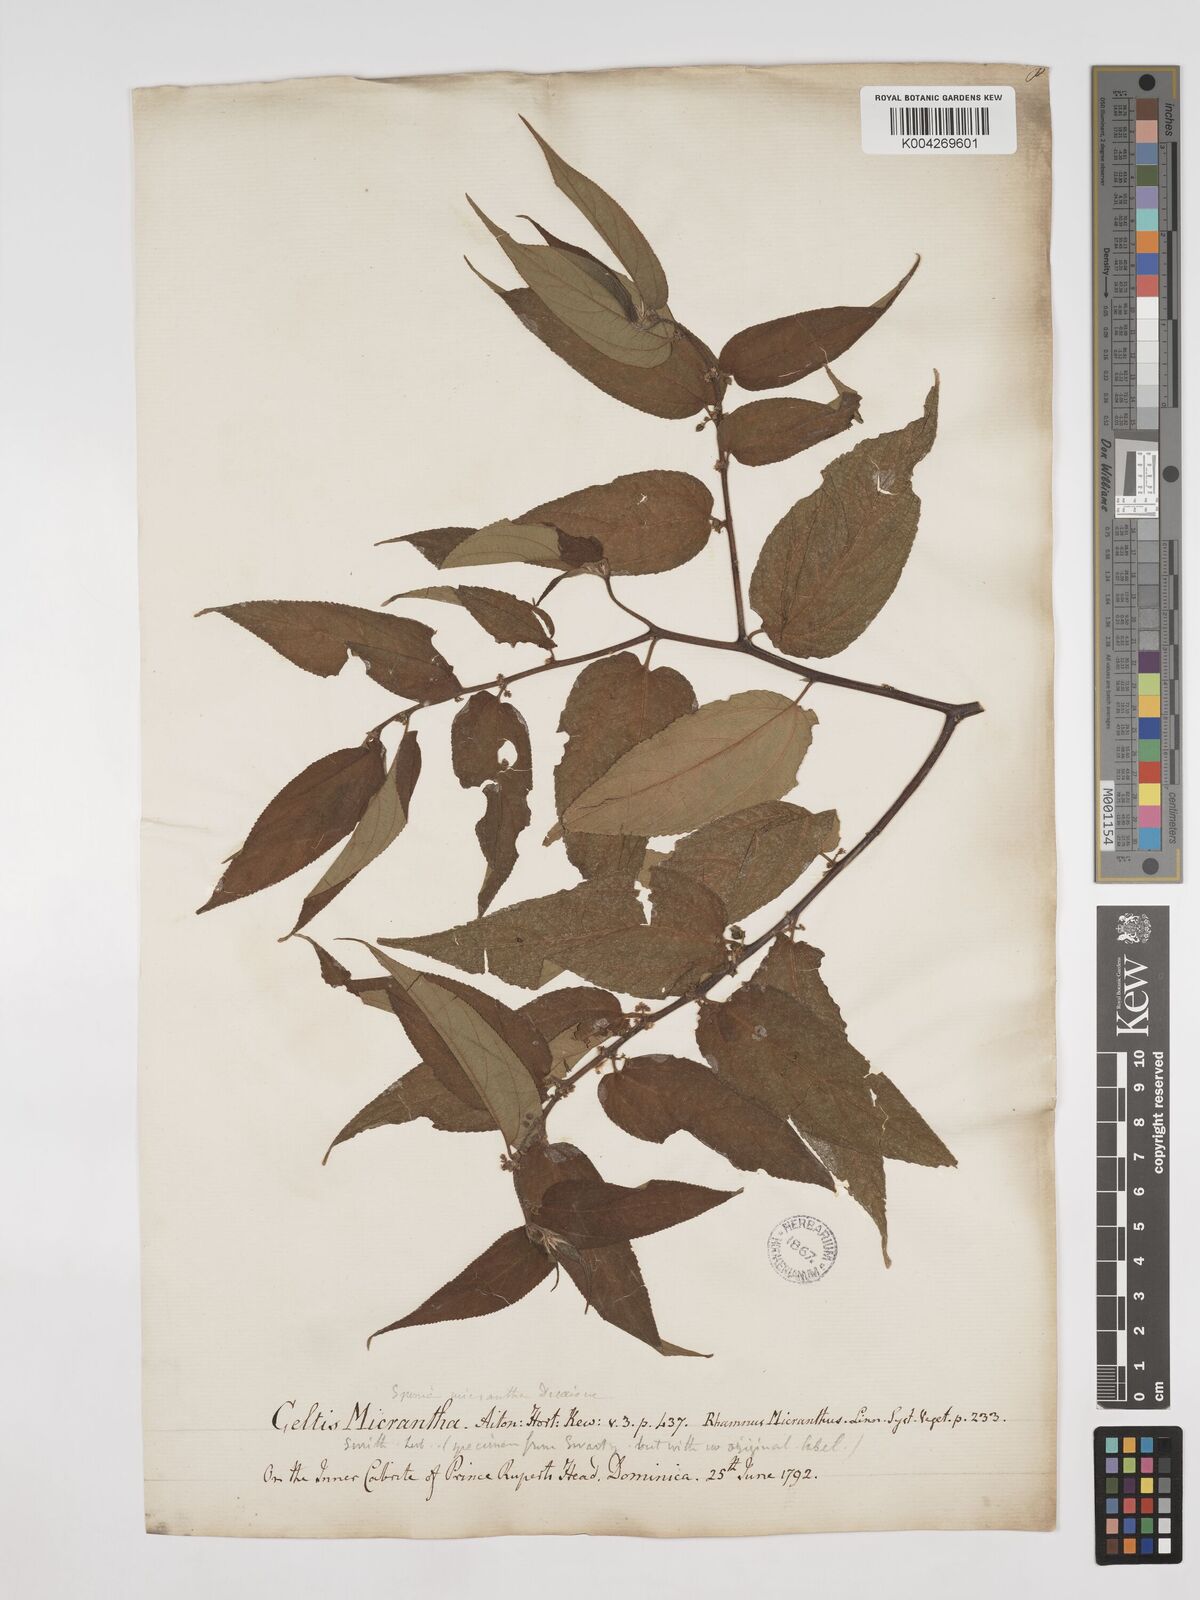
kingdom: Plantae
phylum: Tracheophyta
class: Magnoliopsida
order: Rosales
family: Cannabaceae
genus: Trema
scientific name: Trema micranthum
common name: Jamaican nettletree
